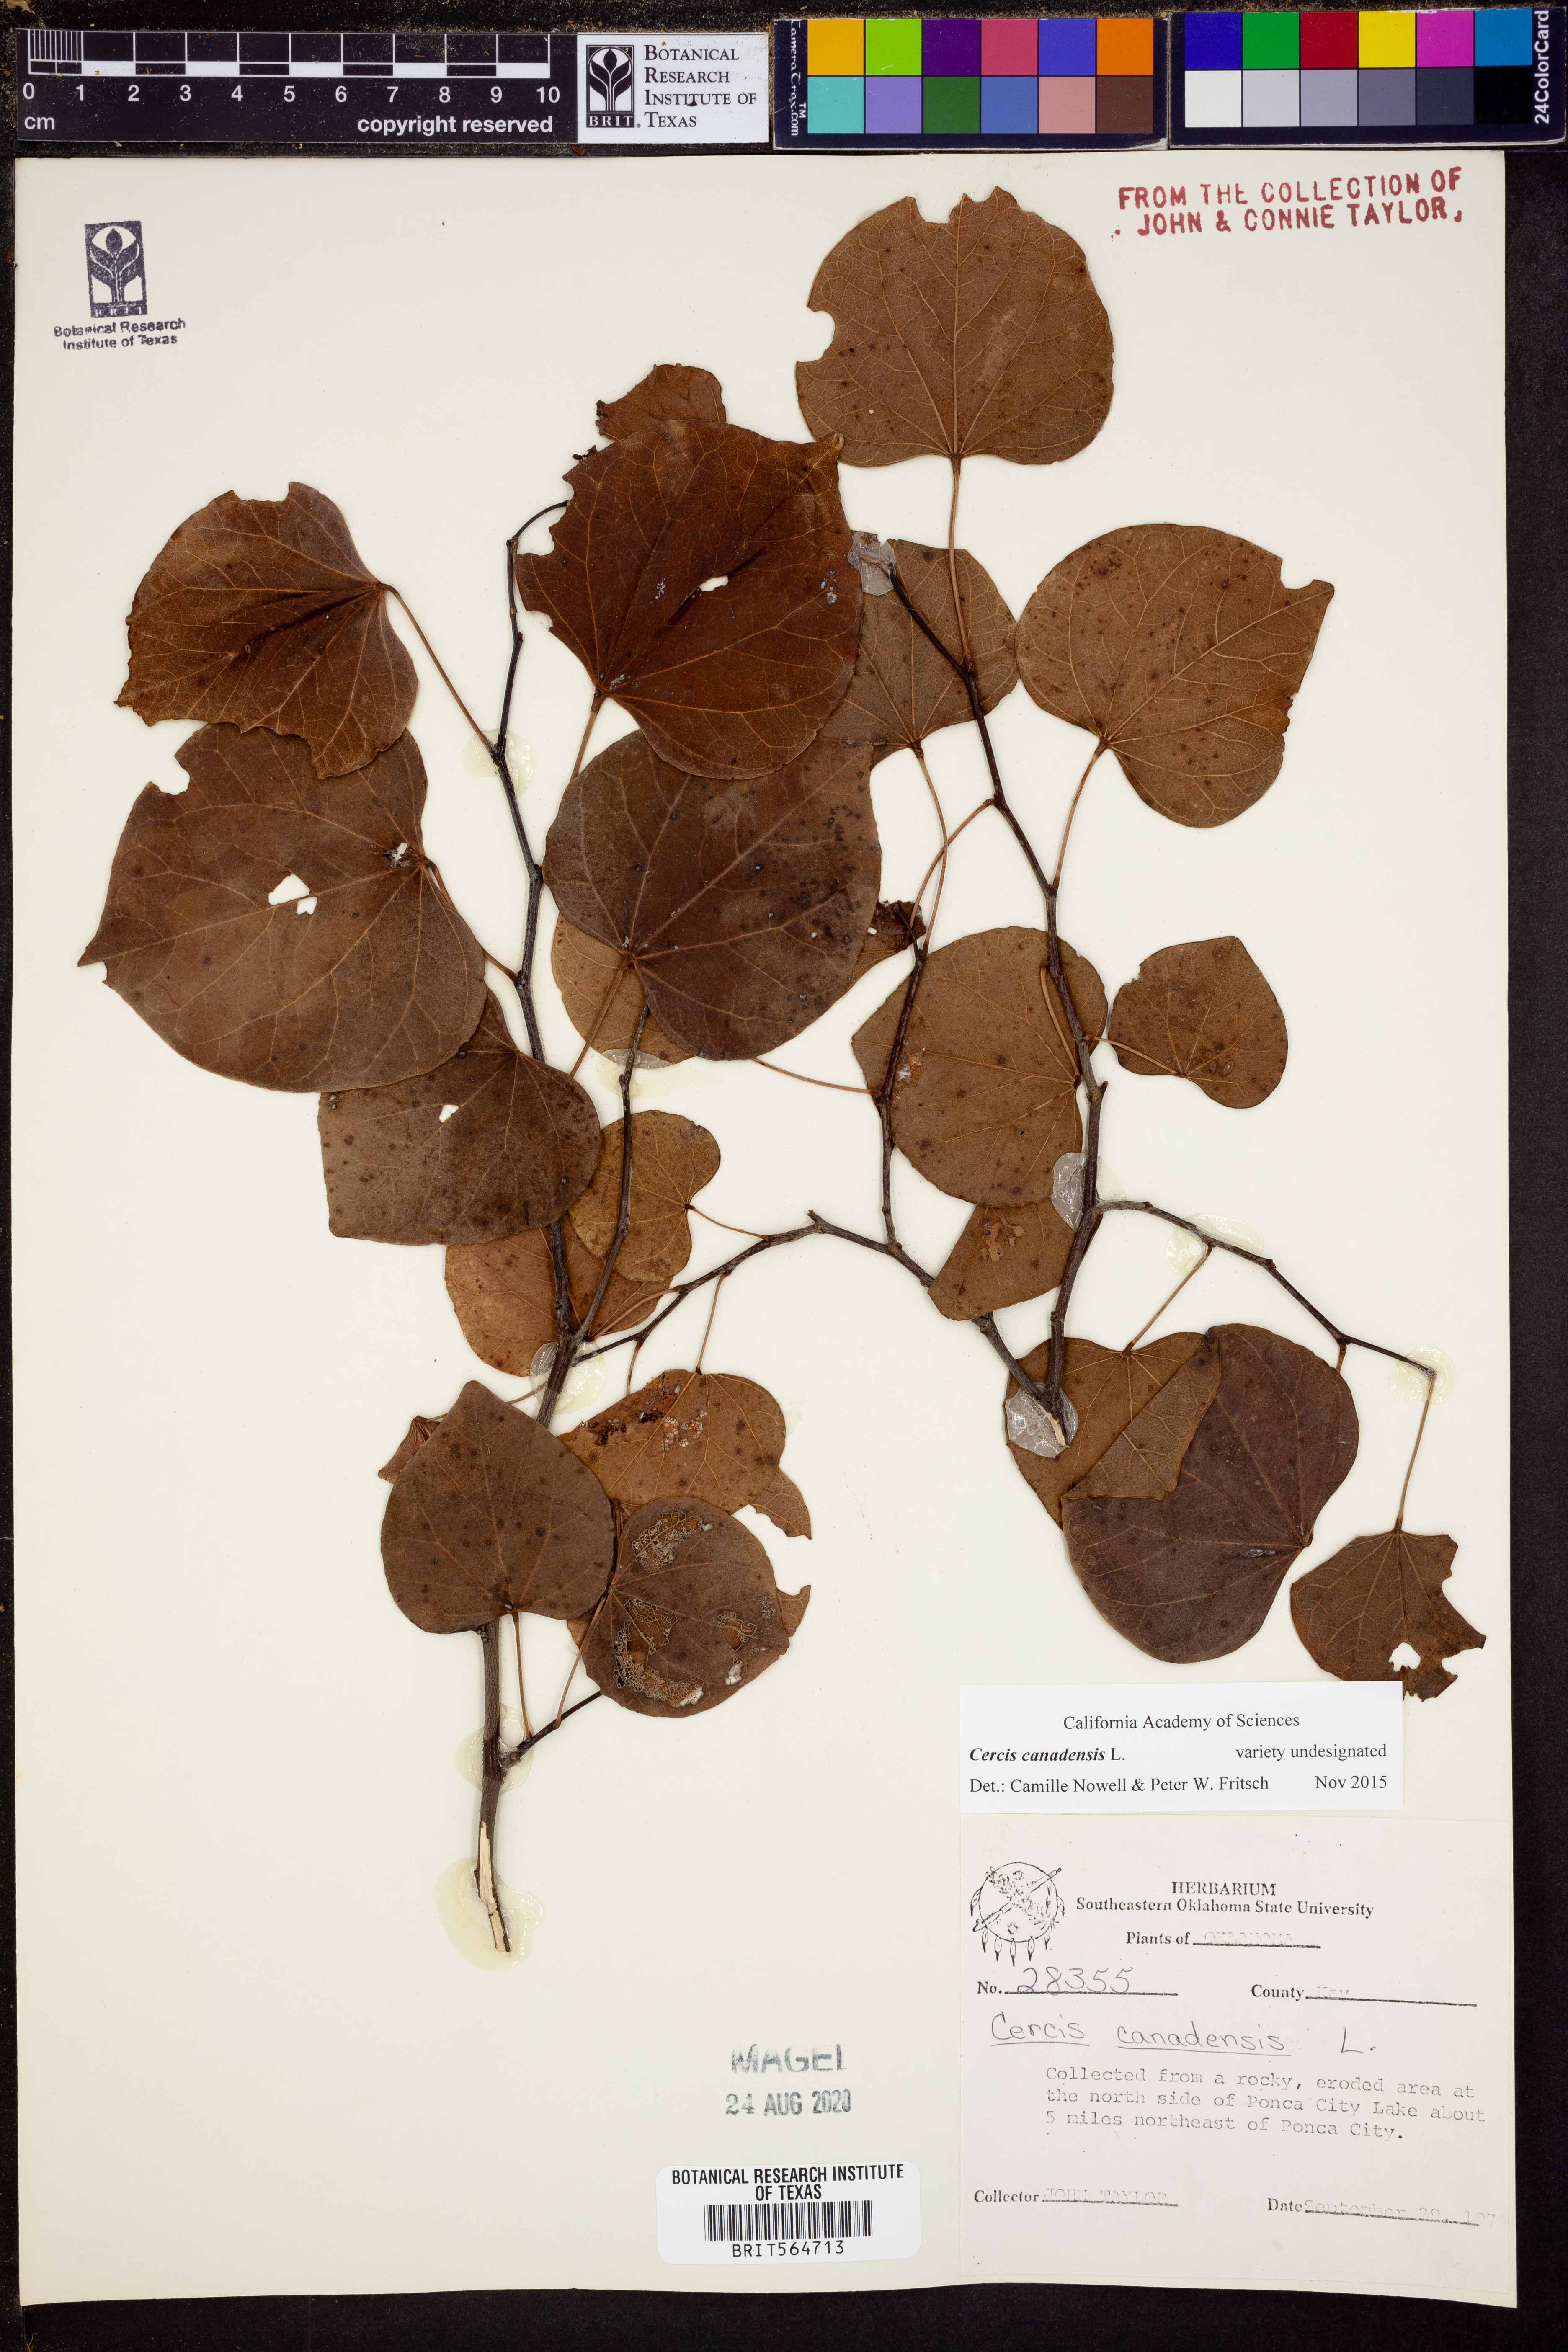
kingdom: Plantae
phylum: Tracheophyta
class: Magnoliopsida
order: Fabales
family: Fabaceae
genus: Cercis
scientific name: Cercis canadensis
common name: Eastern redbud
